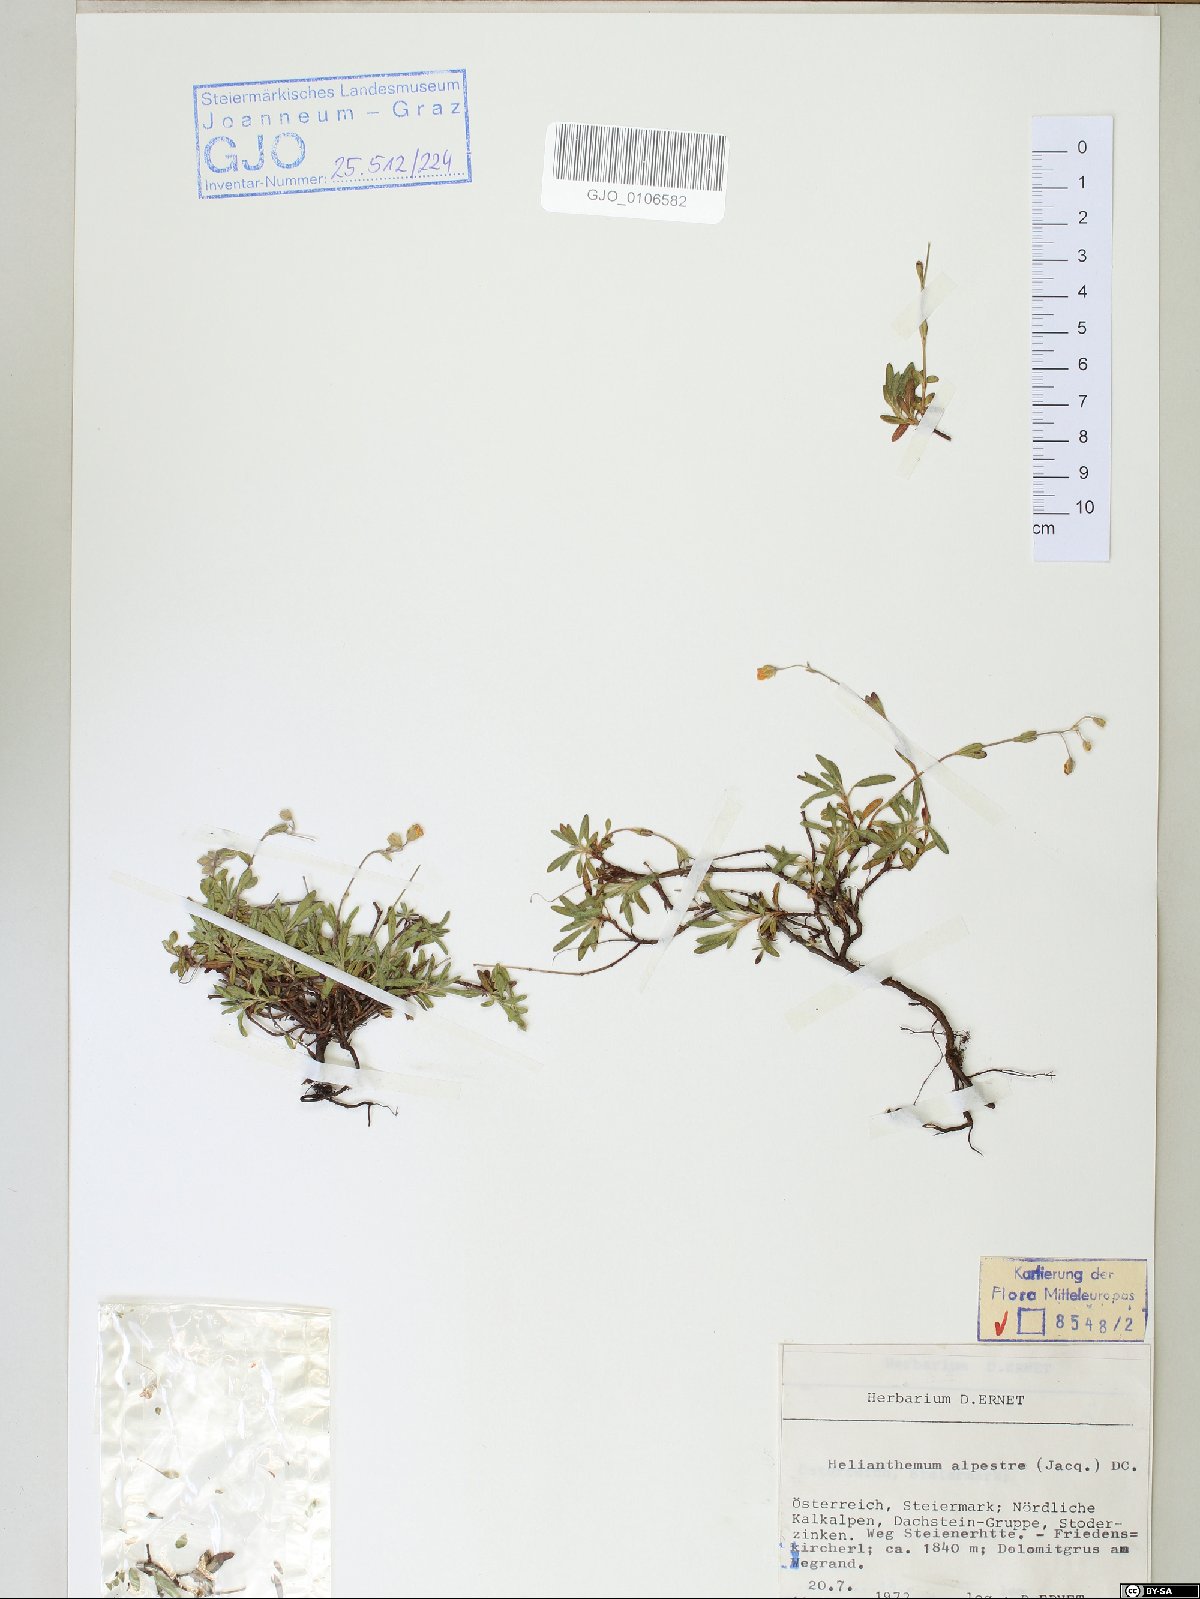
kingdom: Plantae
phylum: Tracheophyta
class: Magnoliopsida
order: Malvales
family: Cistaceae
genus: Helianthemum
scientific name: Helianthemum alpestre
